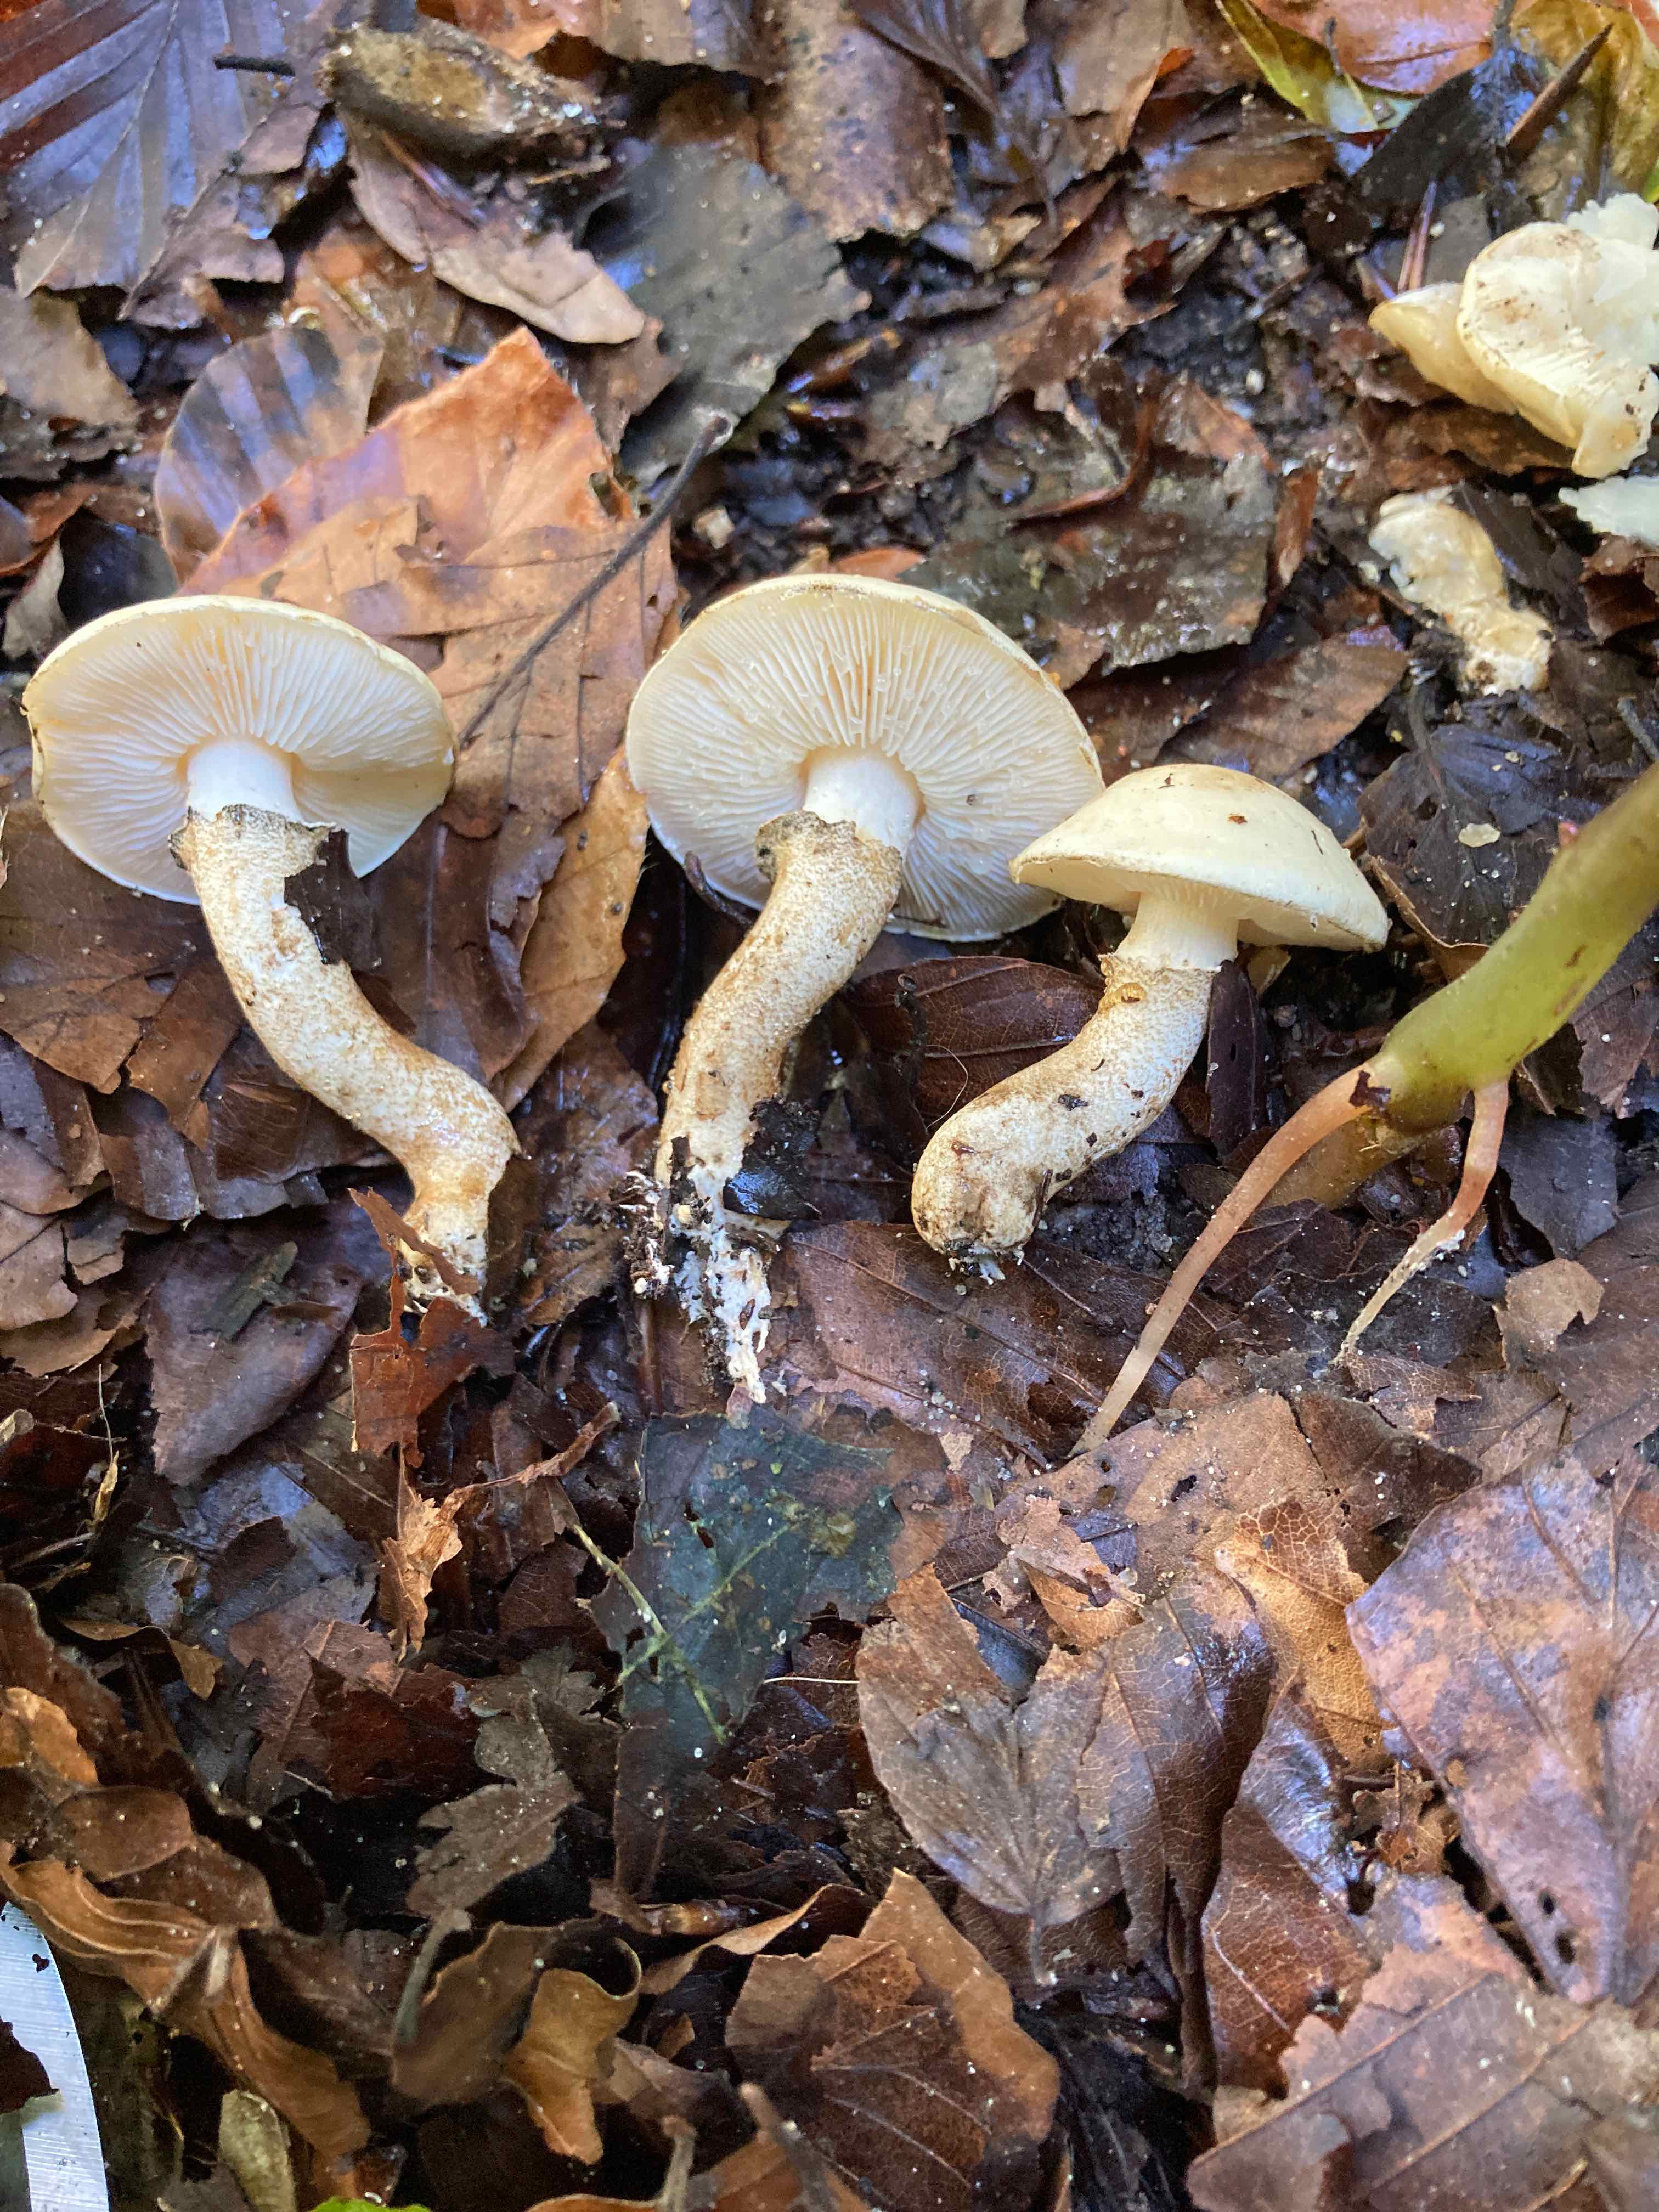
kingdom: Fungi
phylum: Basidiomycota
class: Agaricomycetes
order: Agaricales
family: Agaricaceae
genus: Chamaemyces
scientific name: Chamaemyces fracidus
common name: dråbehat
